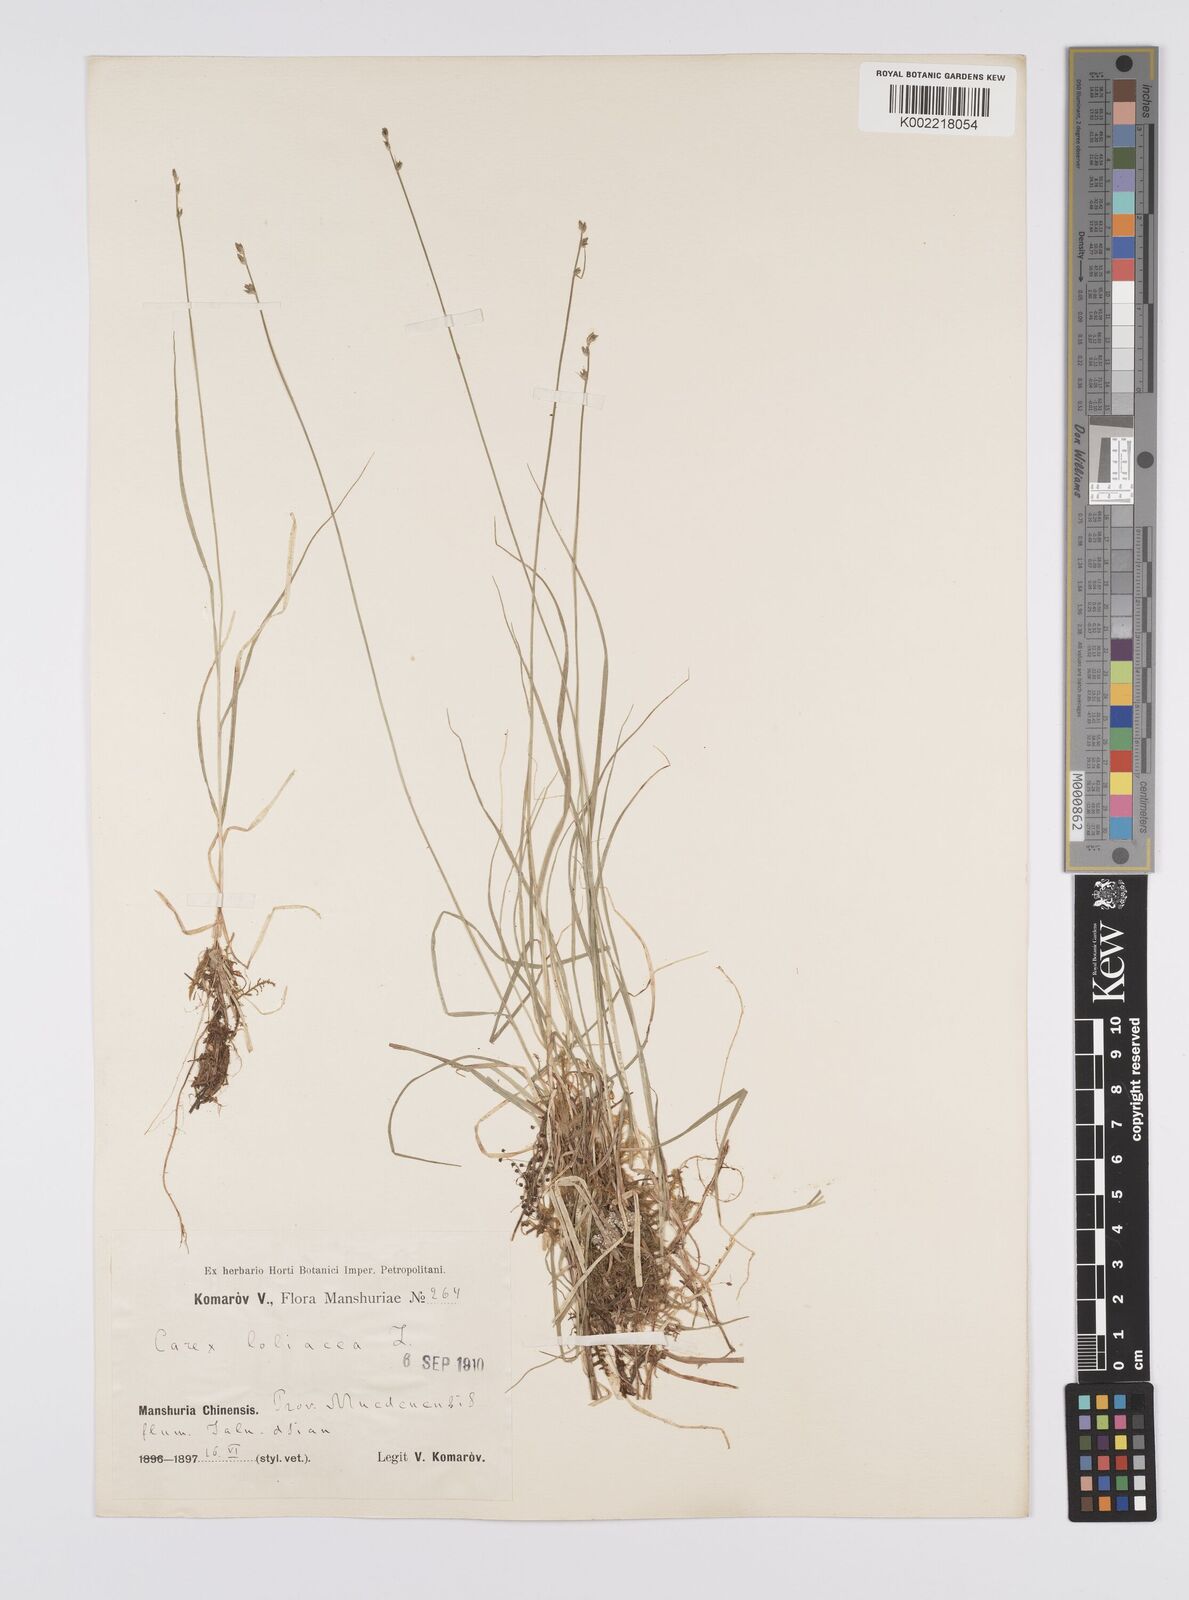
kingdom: Plantae
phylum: Tracheophyta
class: Liliopsida
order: Poales
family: Cyperaceae
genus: Carex
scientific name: Carex loliacea
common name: Ryegrass sedge
